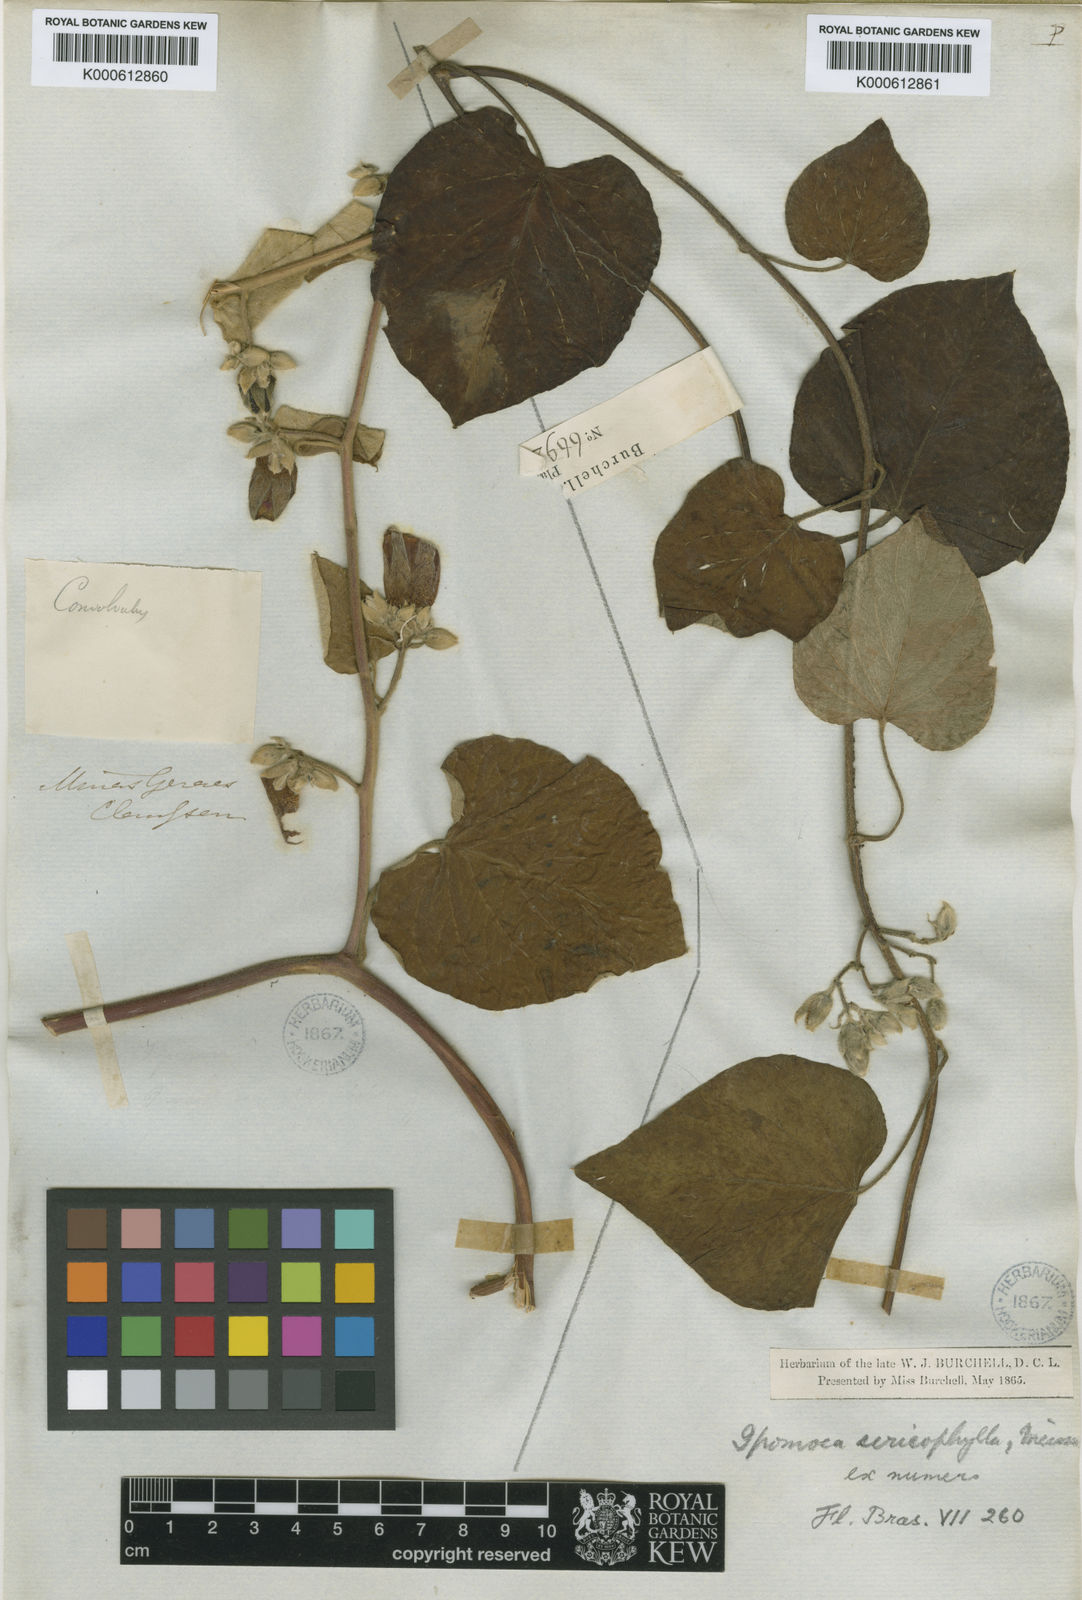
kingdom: Plantae
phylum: Tracheophyta
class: Magnoliopsida
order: Solanales
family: Convolvulaceae
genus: Ipomoea
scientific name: Ipomoea sericophylla
